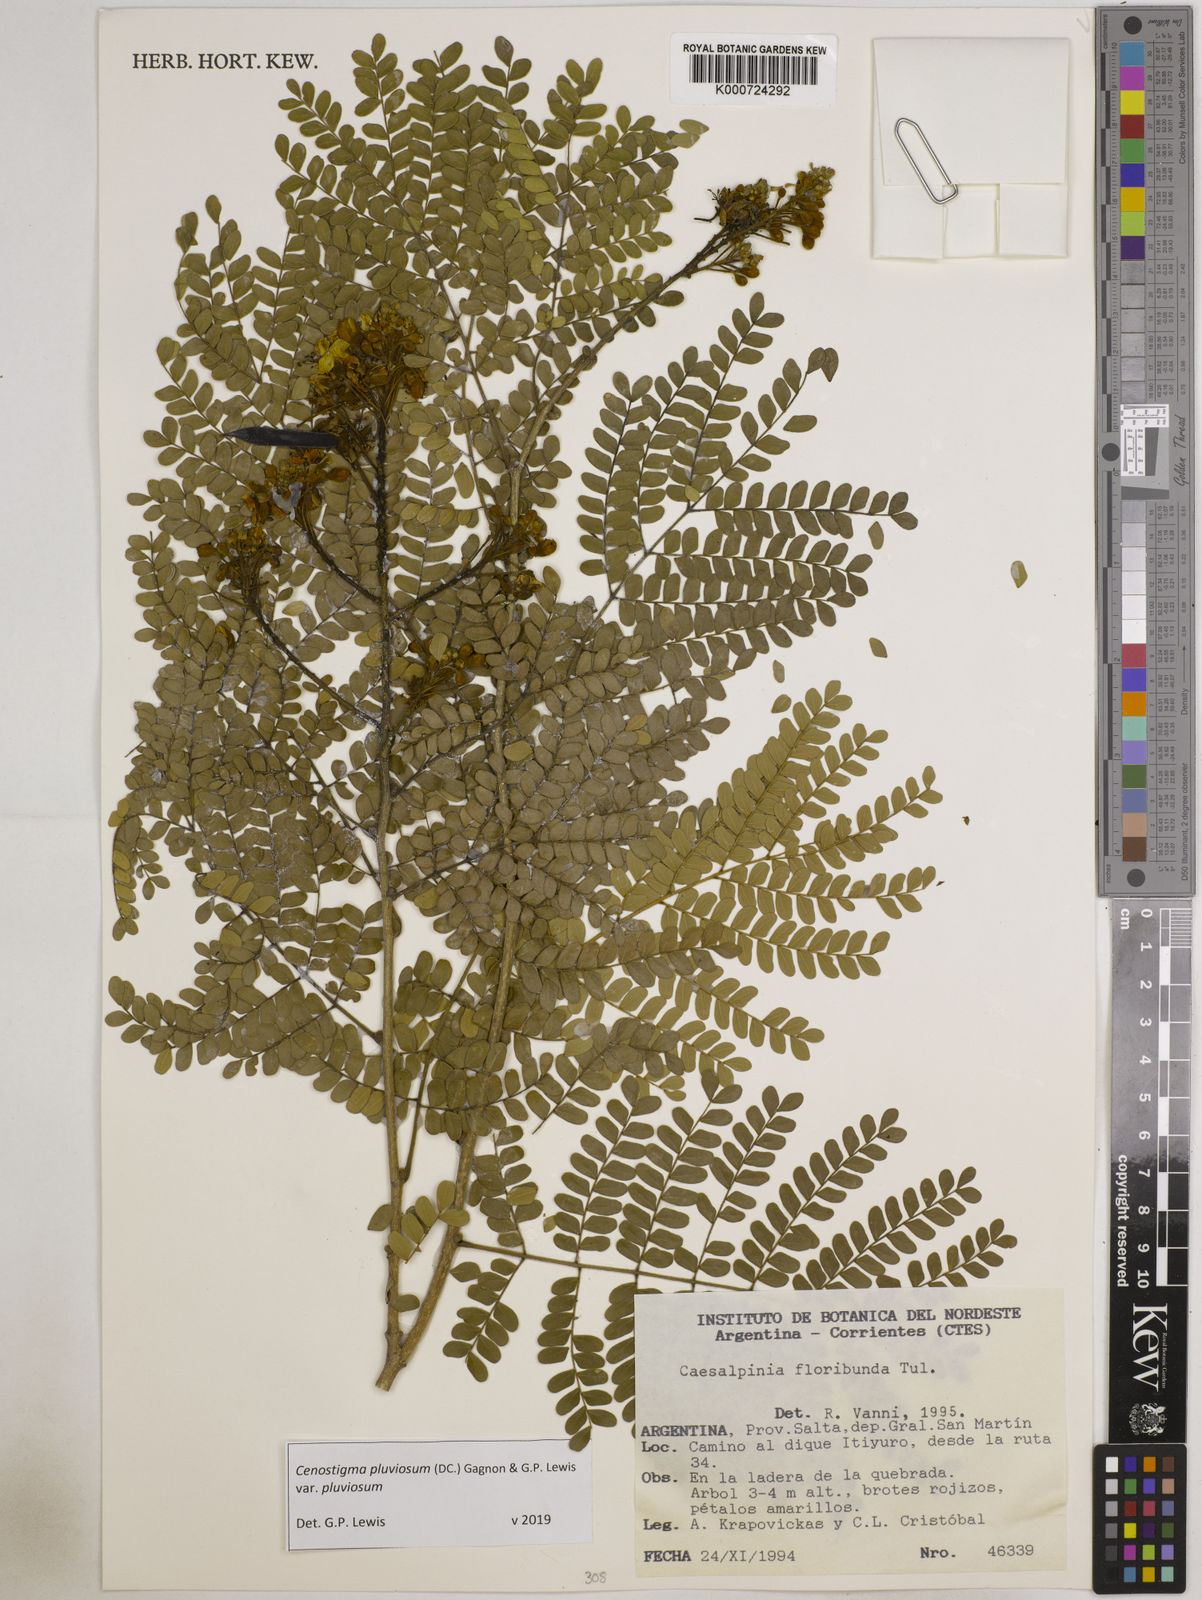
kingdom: Plantae
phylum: Tracheophyta
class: Magnoliopsida
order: Fabales
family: Fabaceae
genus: Cenostigma
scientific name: Cenostigma pluviosum
